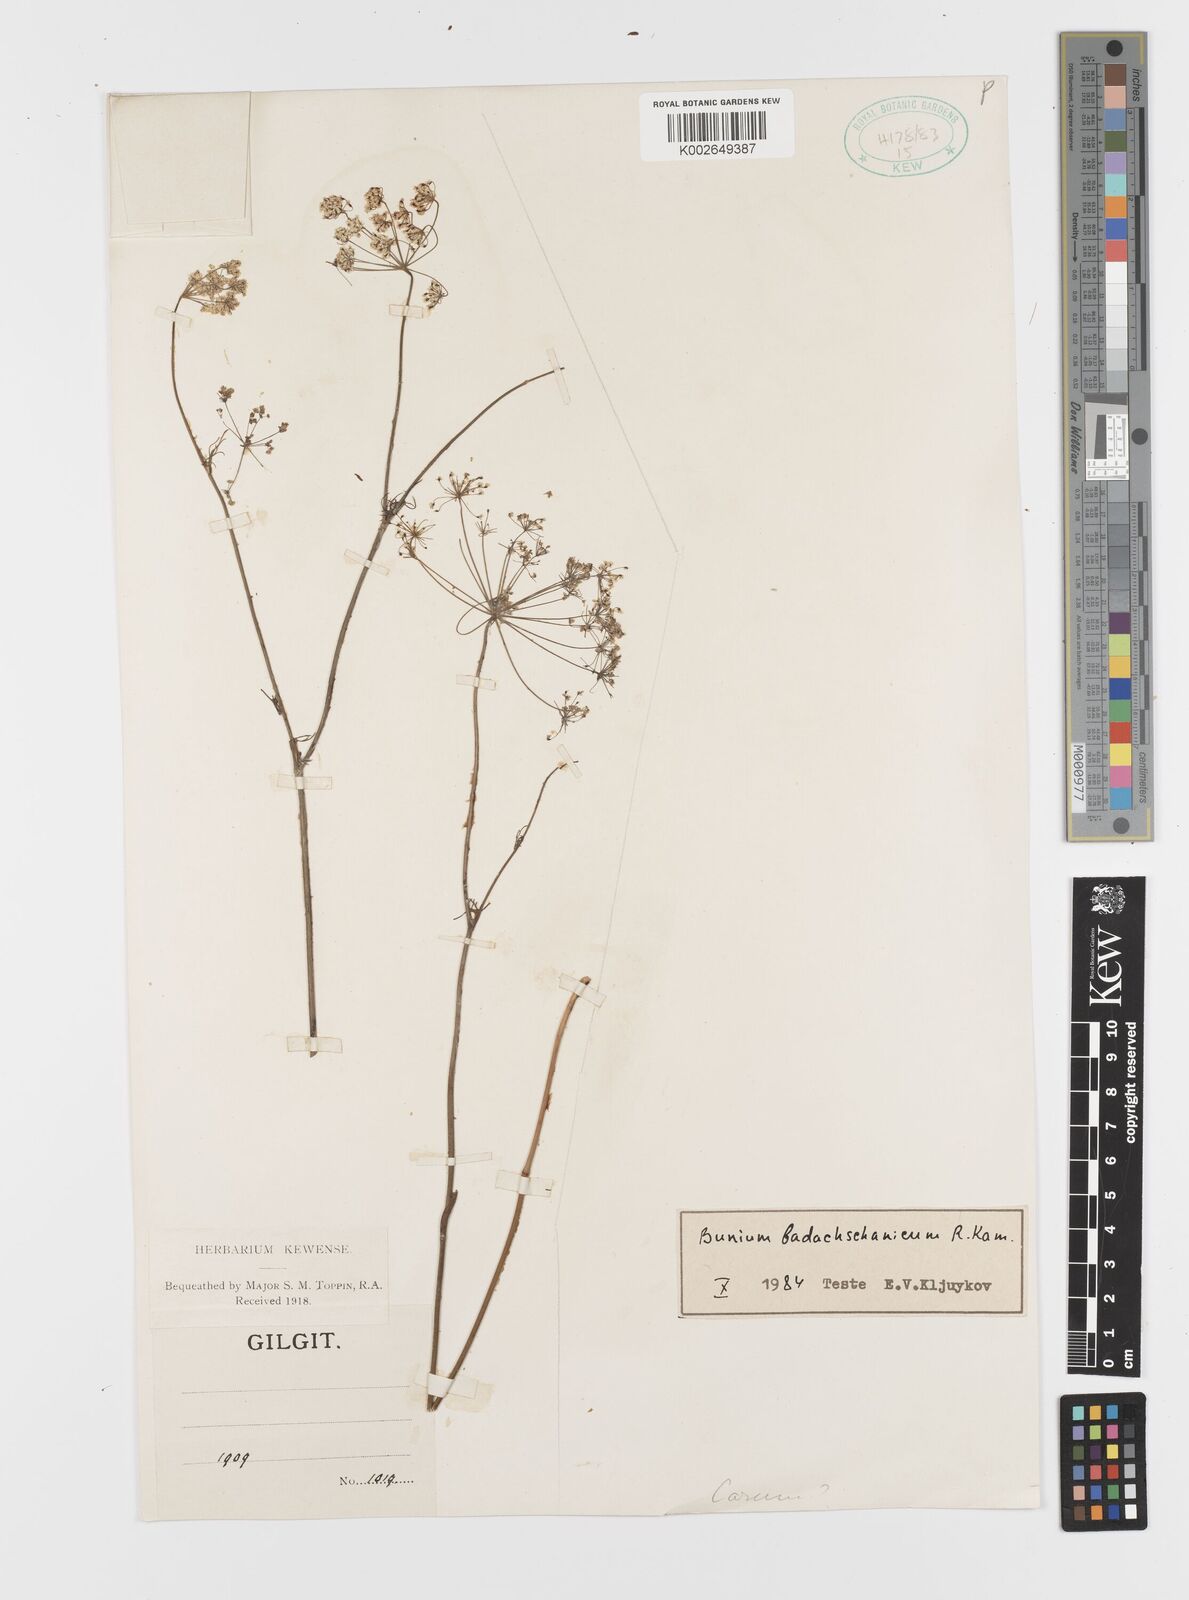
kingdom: Plantae
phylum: Tracheophyta
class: Magnoliopsida
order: Apiales
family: Apiaceae
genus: Elwendia
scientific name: Elwendia badachschanica
